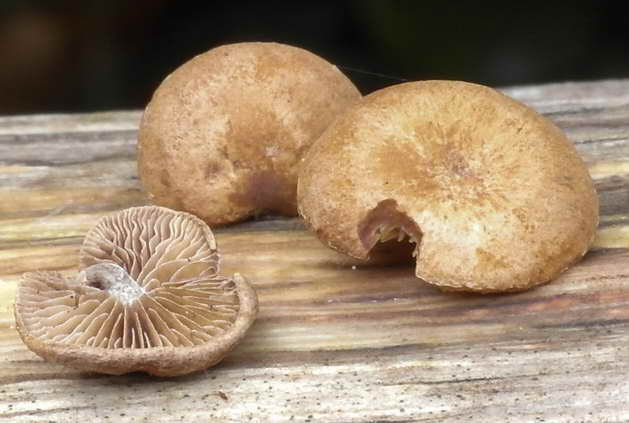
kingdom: Fungi
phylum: Basidiomycota
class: Agaricomycetes
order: Agaricales
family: Strophariaceae
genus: Deconica
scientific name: Deconica horizontalis
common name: ved-stråhat
